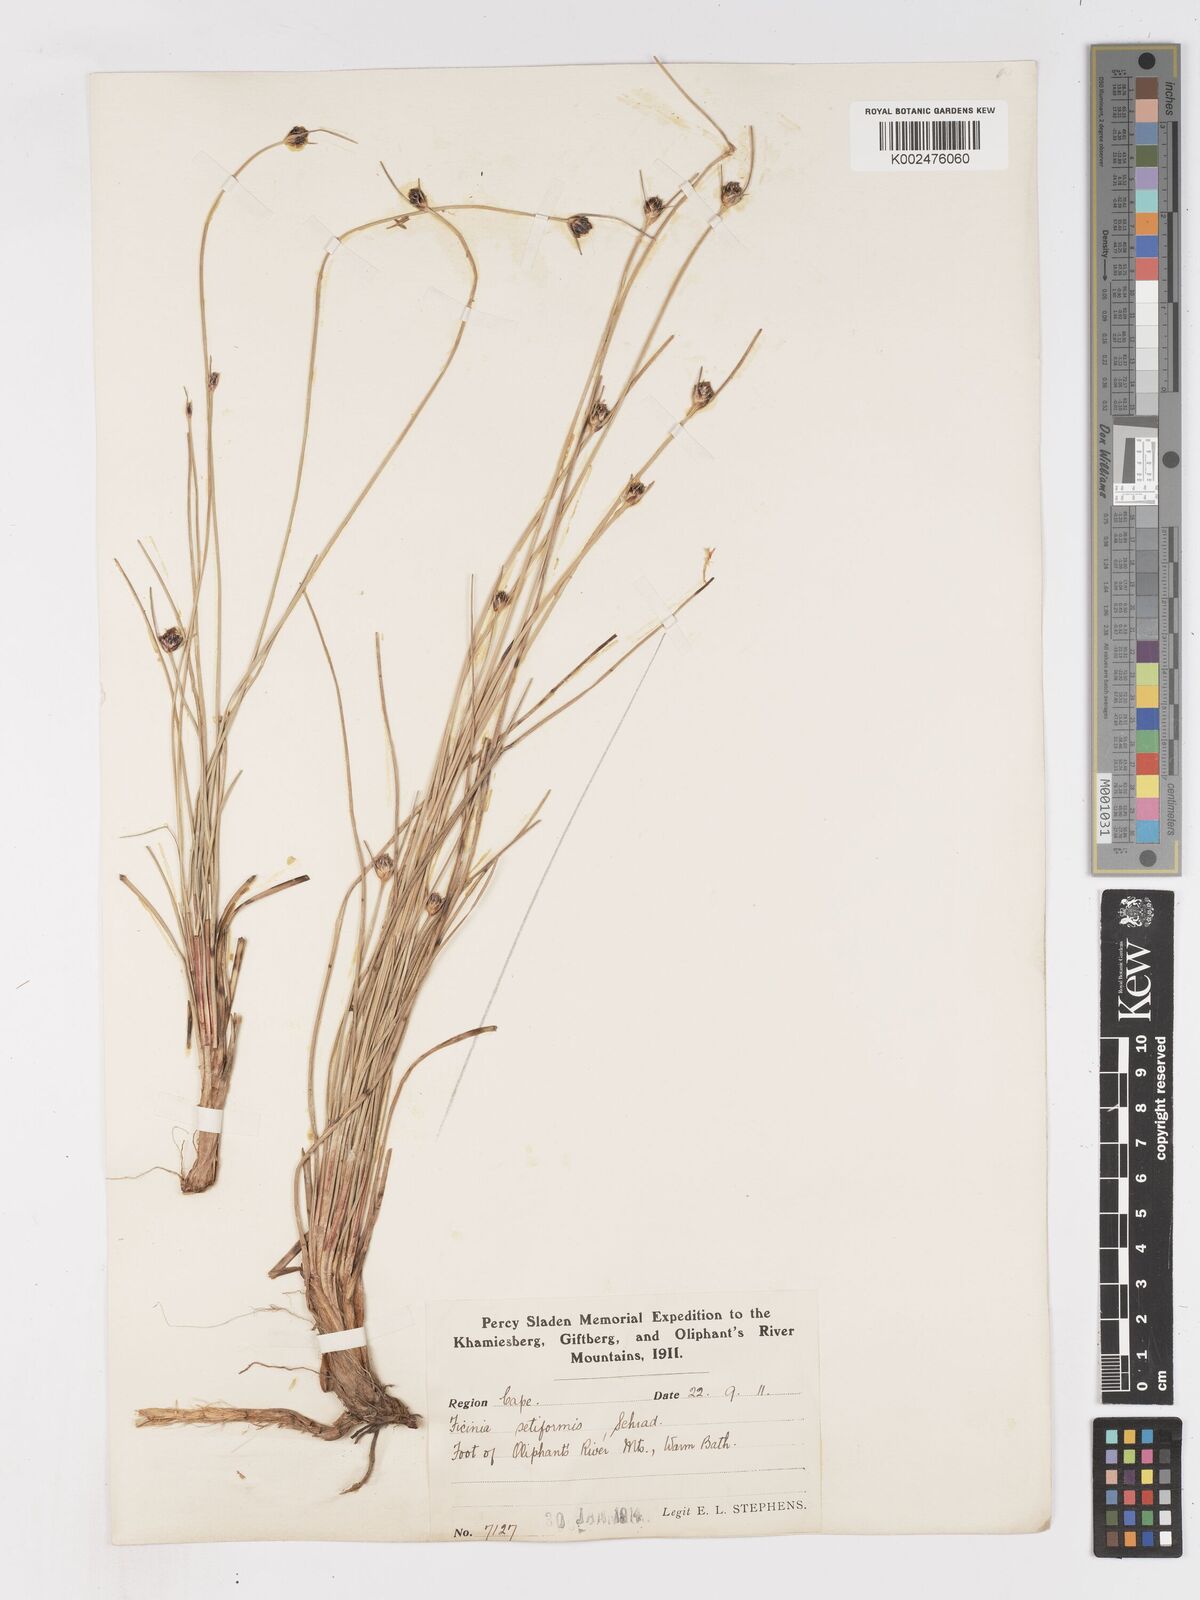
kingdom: Plantae
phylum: Tracheophyta
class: Liliopsida
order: Poales
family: Cyperaceae
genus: Ficinia
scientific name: Ficinia indica
